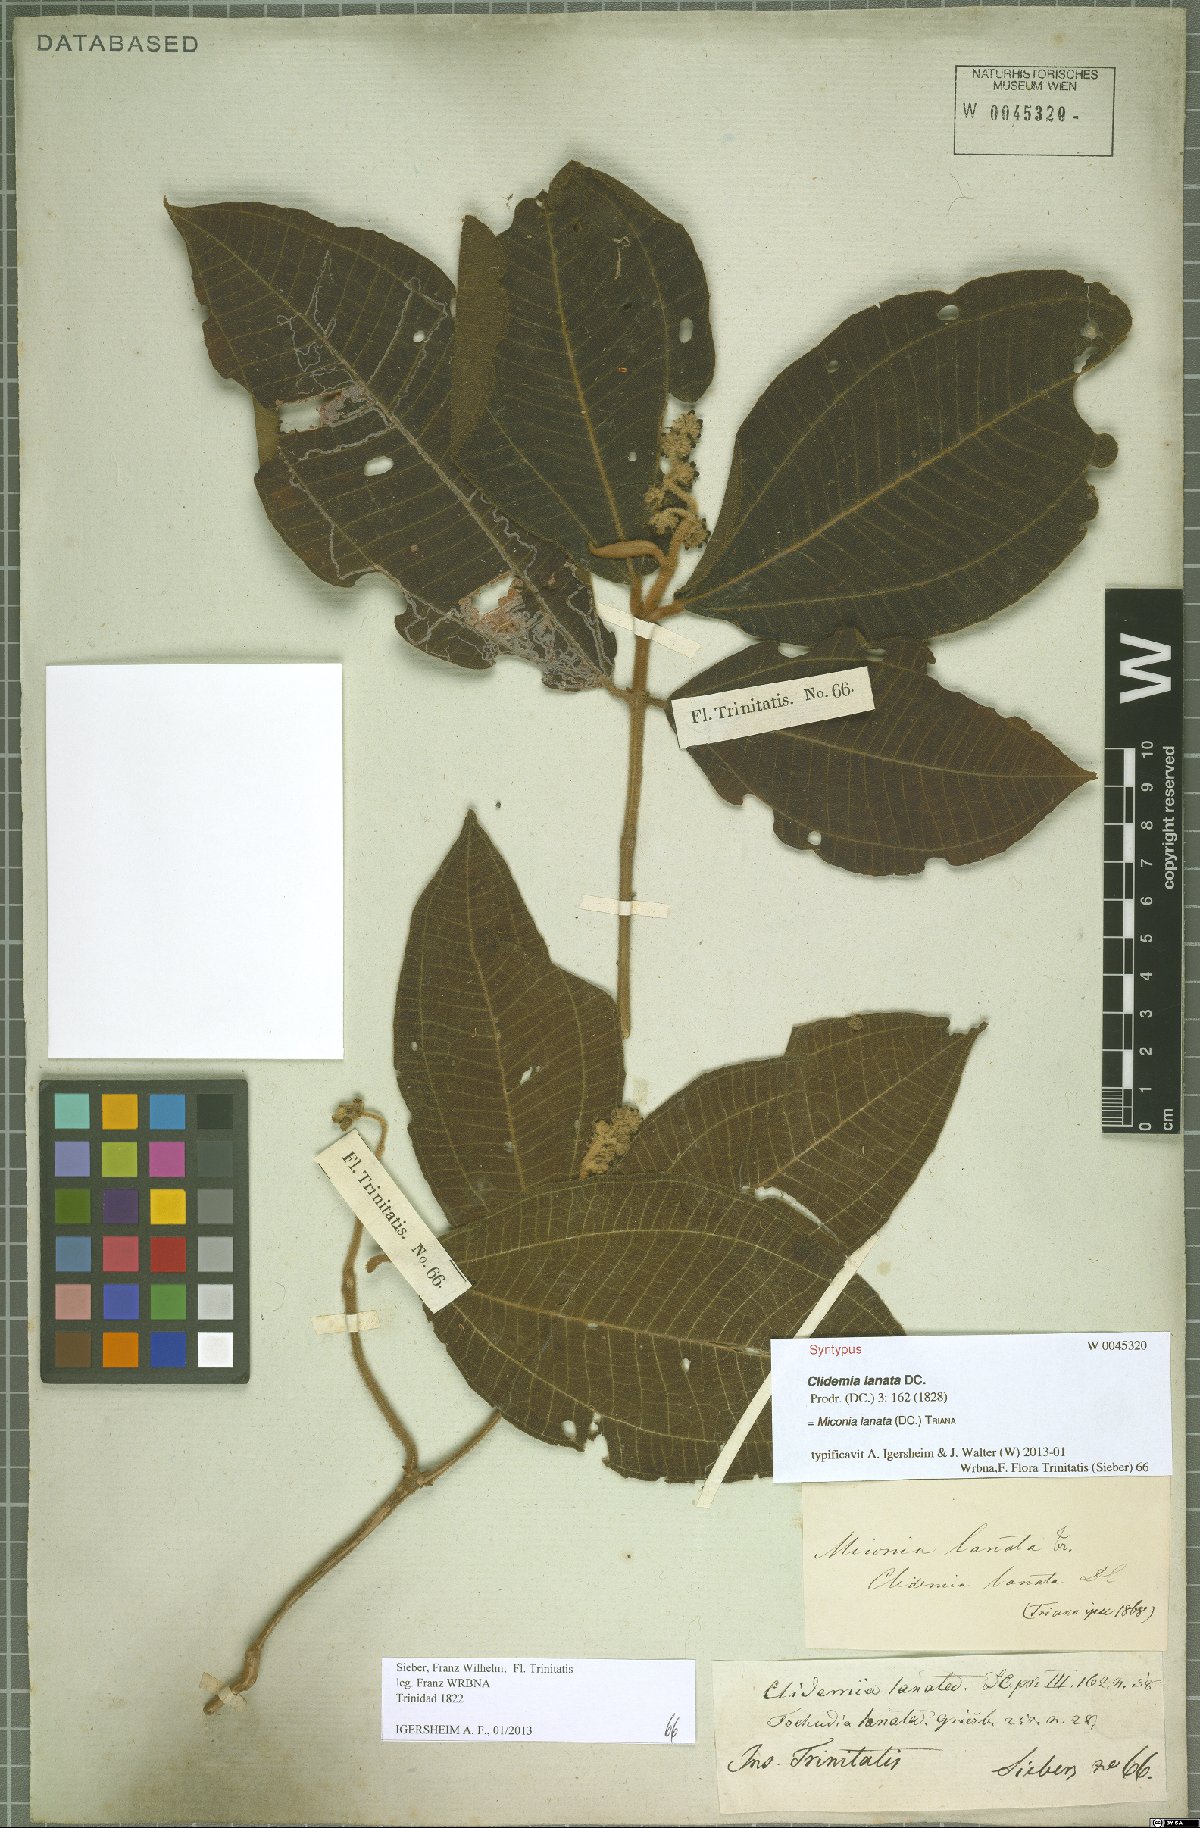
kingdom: Plantae
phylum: Tracheophyta
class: Magnoliopsida
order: Myrtales
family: Melastomataceae
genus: Miconia
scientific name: Miconia lanata
